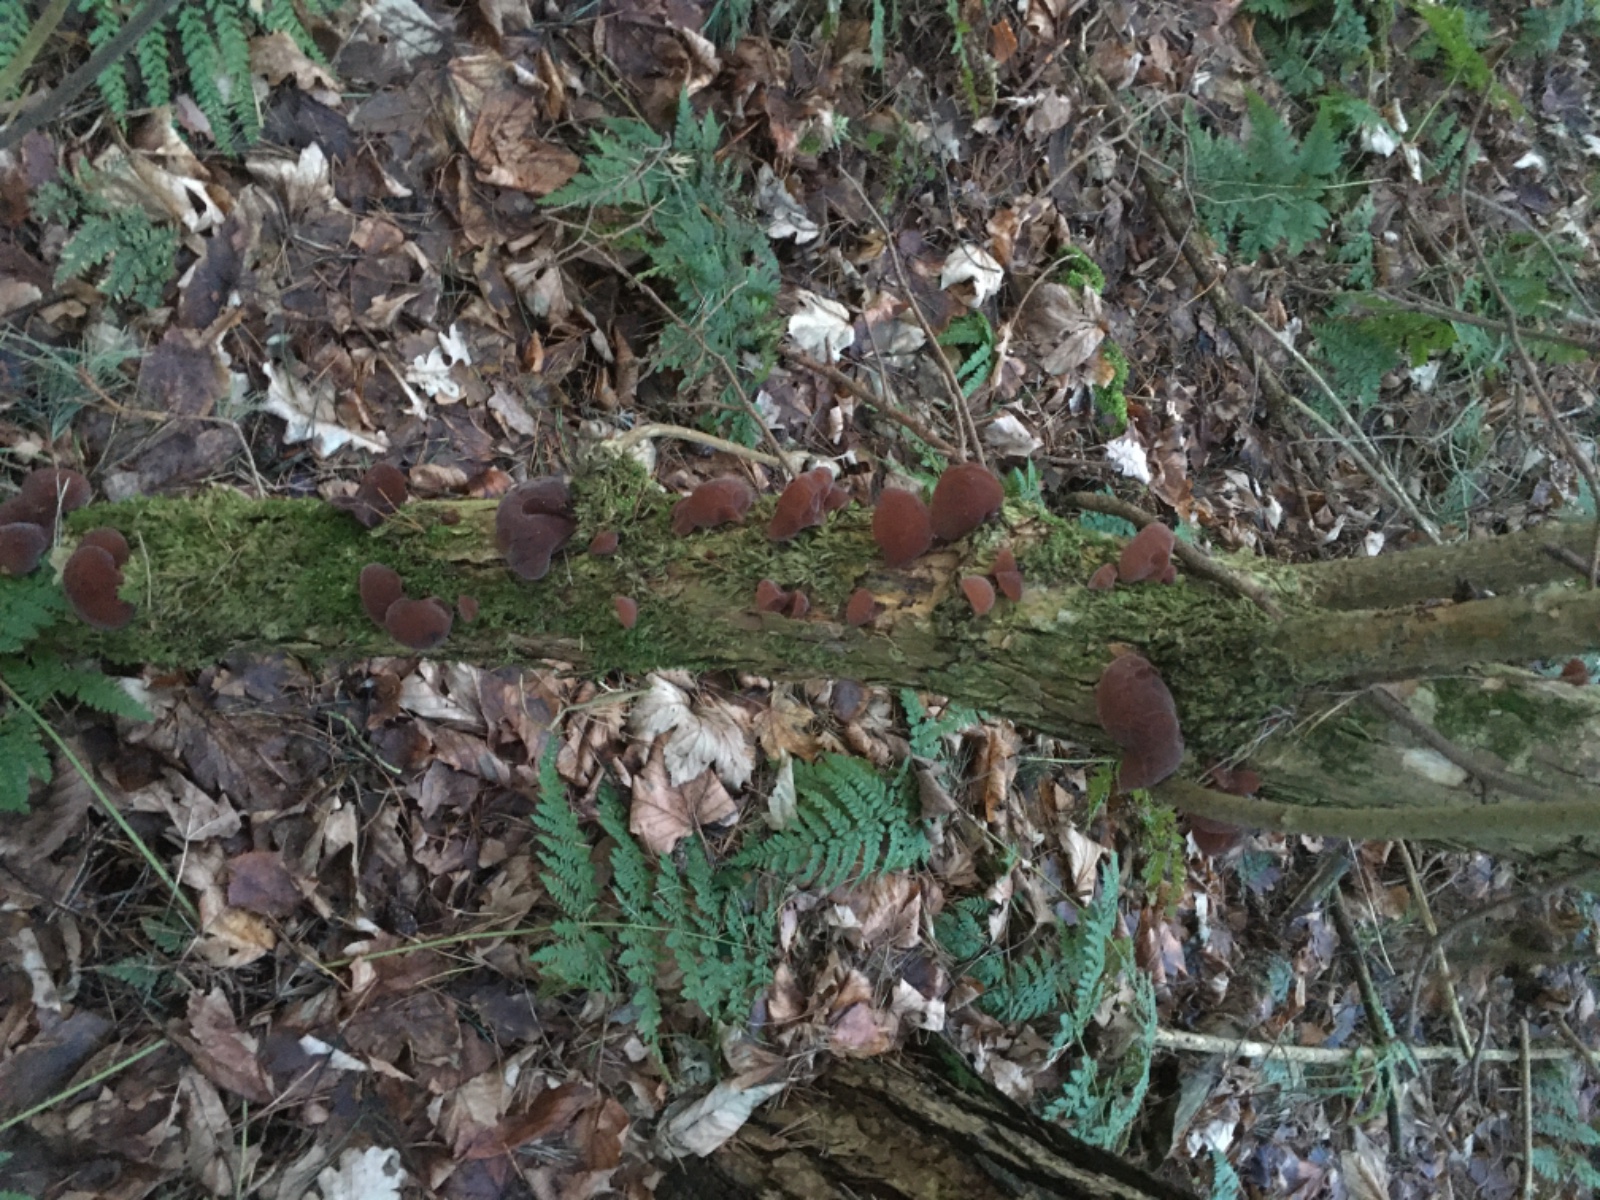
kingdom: Fungi
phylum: Basidiomycota
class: Agaricomycetes
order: Auriculariales
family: Auriculariaceae
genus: Auricularia
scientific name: Auricularia auricula-judae
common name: almindelig judasøre
